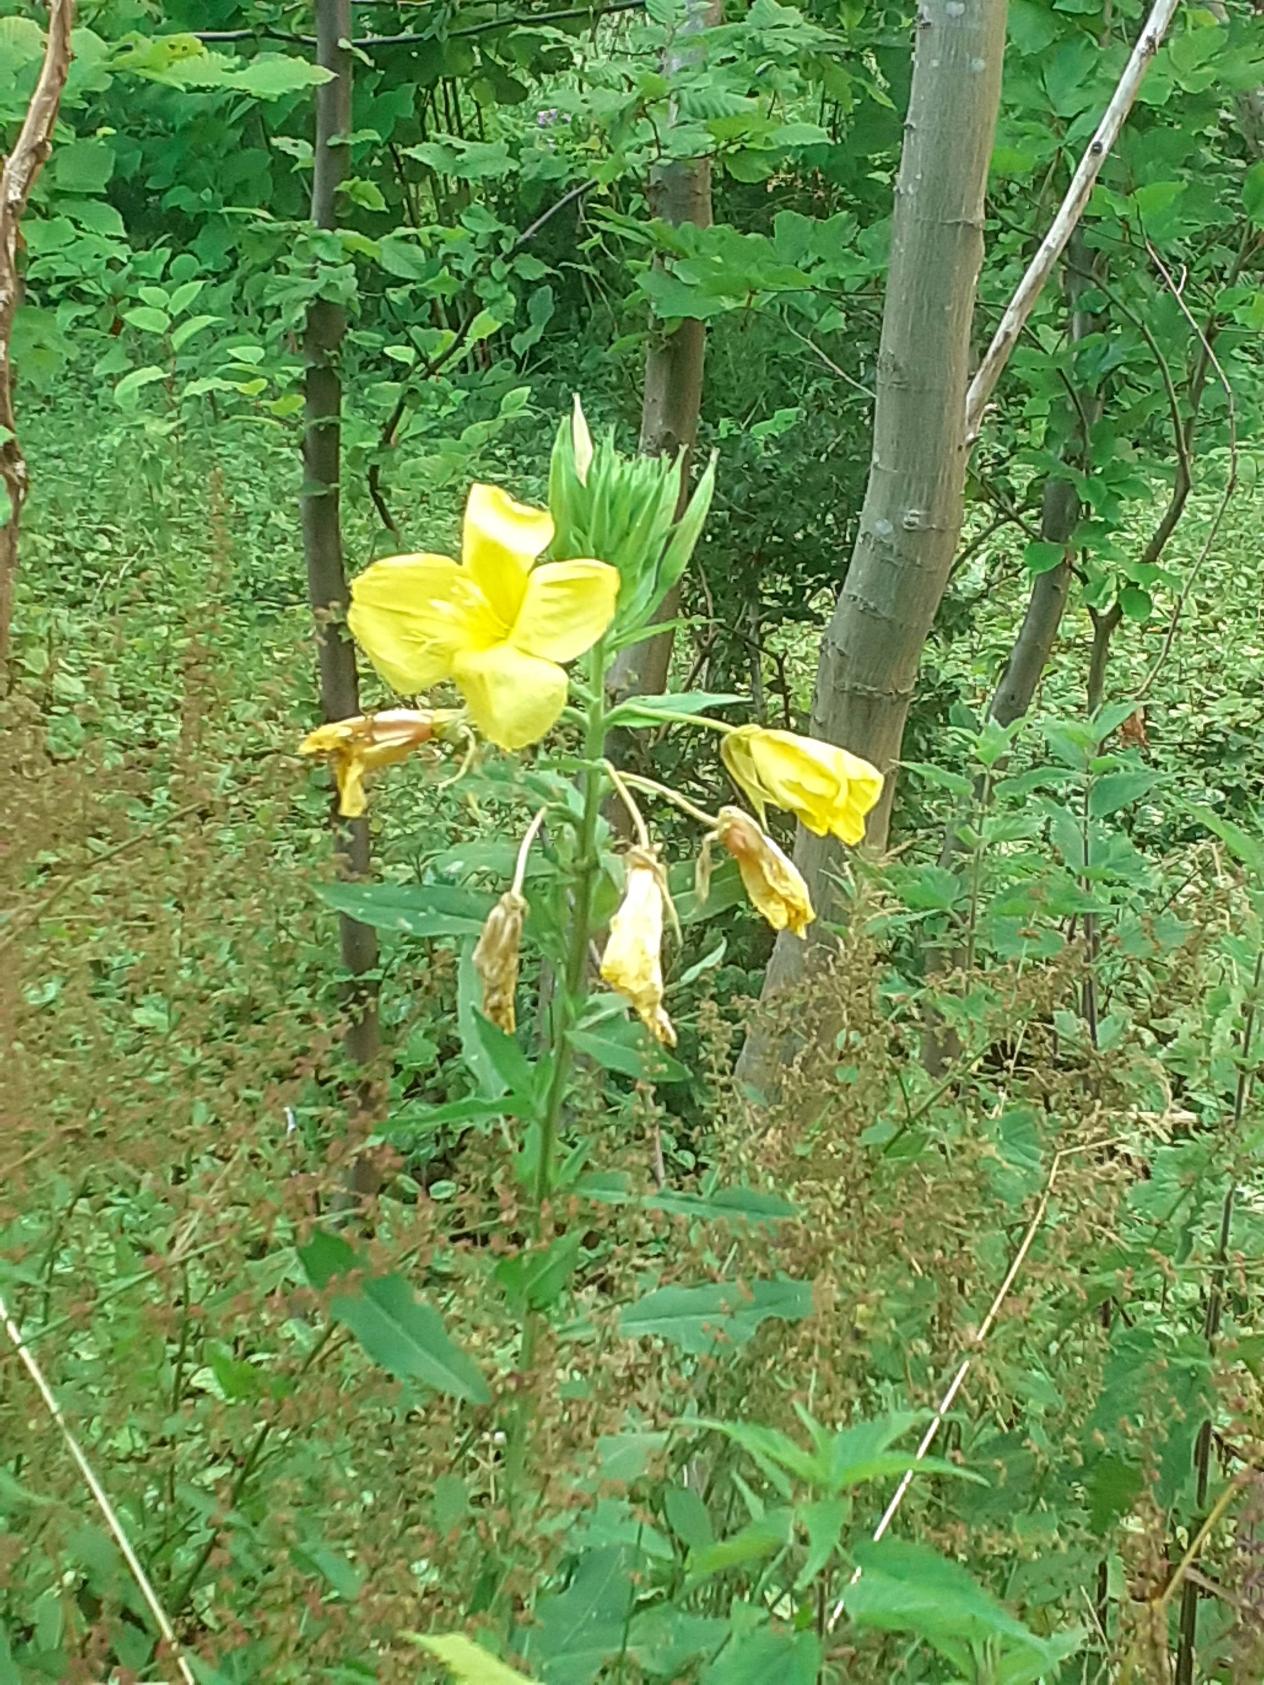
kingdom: Plantae
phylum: Tracheophyta
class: Magnoliopsida
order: Myrtales
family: Onagraceae
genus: Oenothera
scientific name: Oenothera
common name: Natlysslægten
